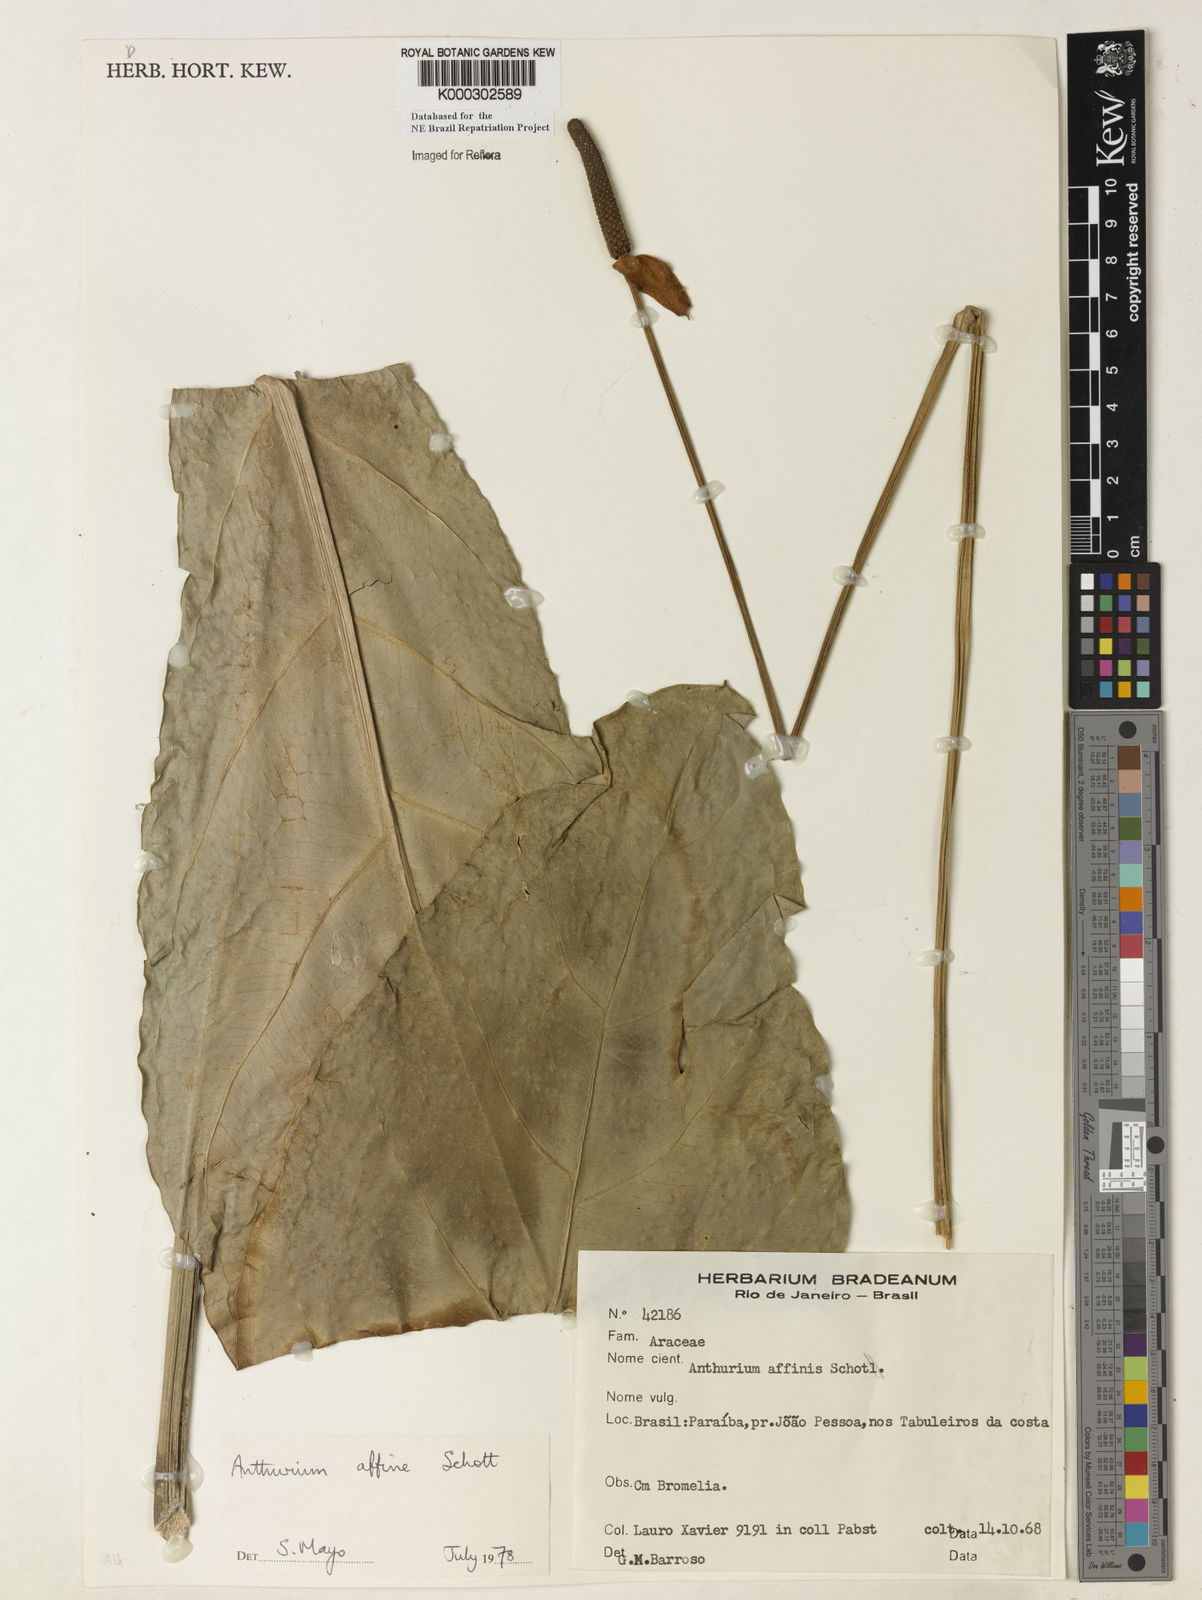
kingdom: Plantae
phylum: Tracheophyta
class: Liliopsida
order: Alismatales
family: Araceae
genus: Anthurium
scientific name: Anthurium affine
